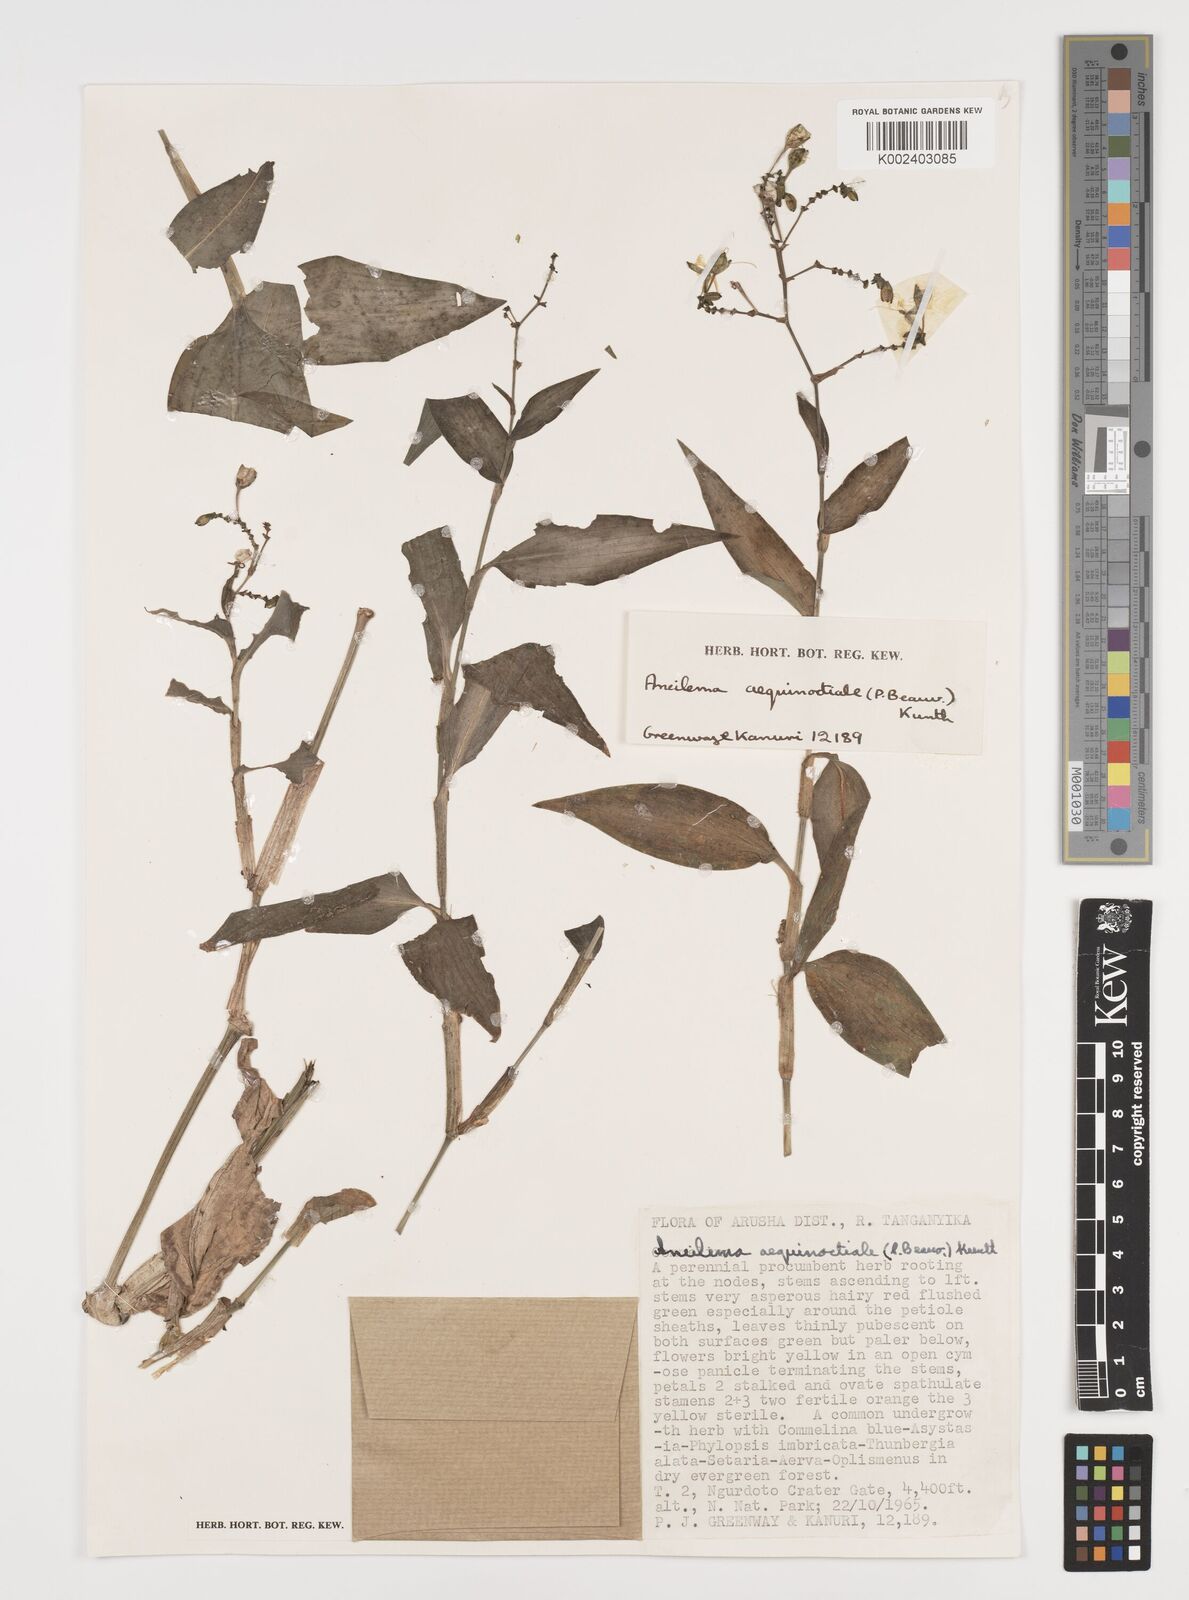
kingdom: Plantae
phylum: Tracheophyta
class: Liliopsida
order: Commelinales
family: Commelinaceae
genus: Aneilema
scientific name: Aneilema aequinoctiale
